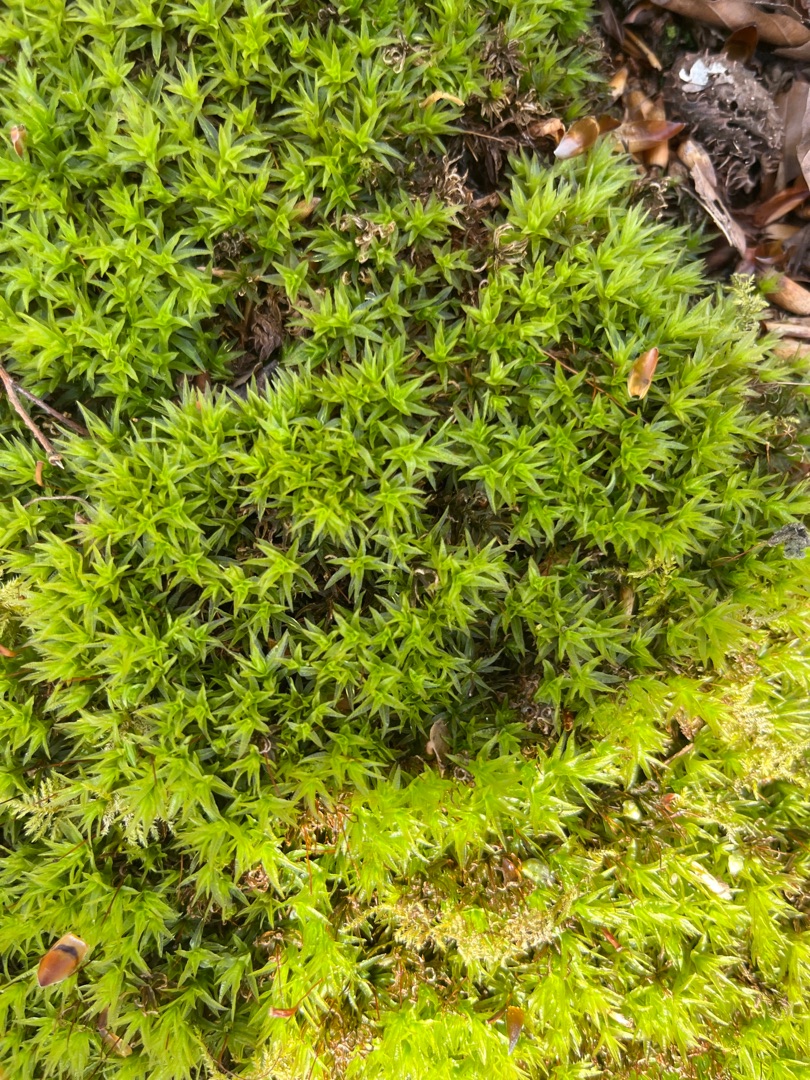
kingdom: Plantae
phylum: Bryophyta
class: Polytrichopsida
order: Polytrichales
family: Polytrichaceae
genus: Atrichum
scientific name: Atrichum undulatum
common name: Bølget katrinemos
